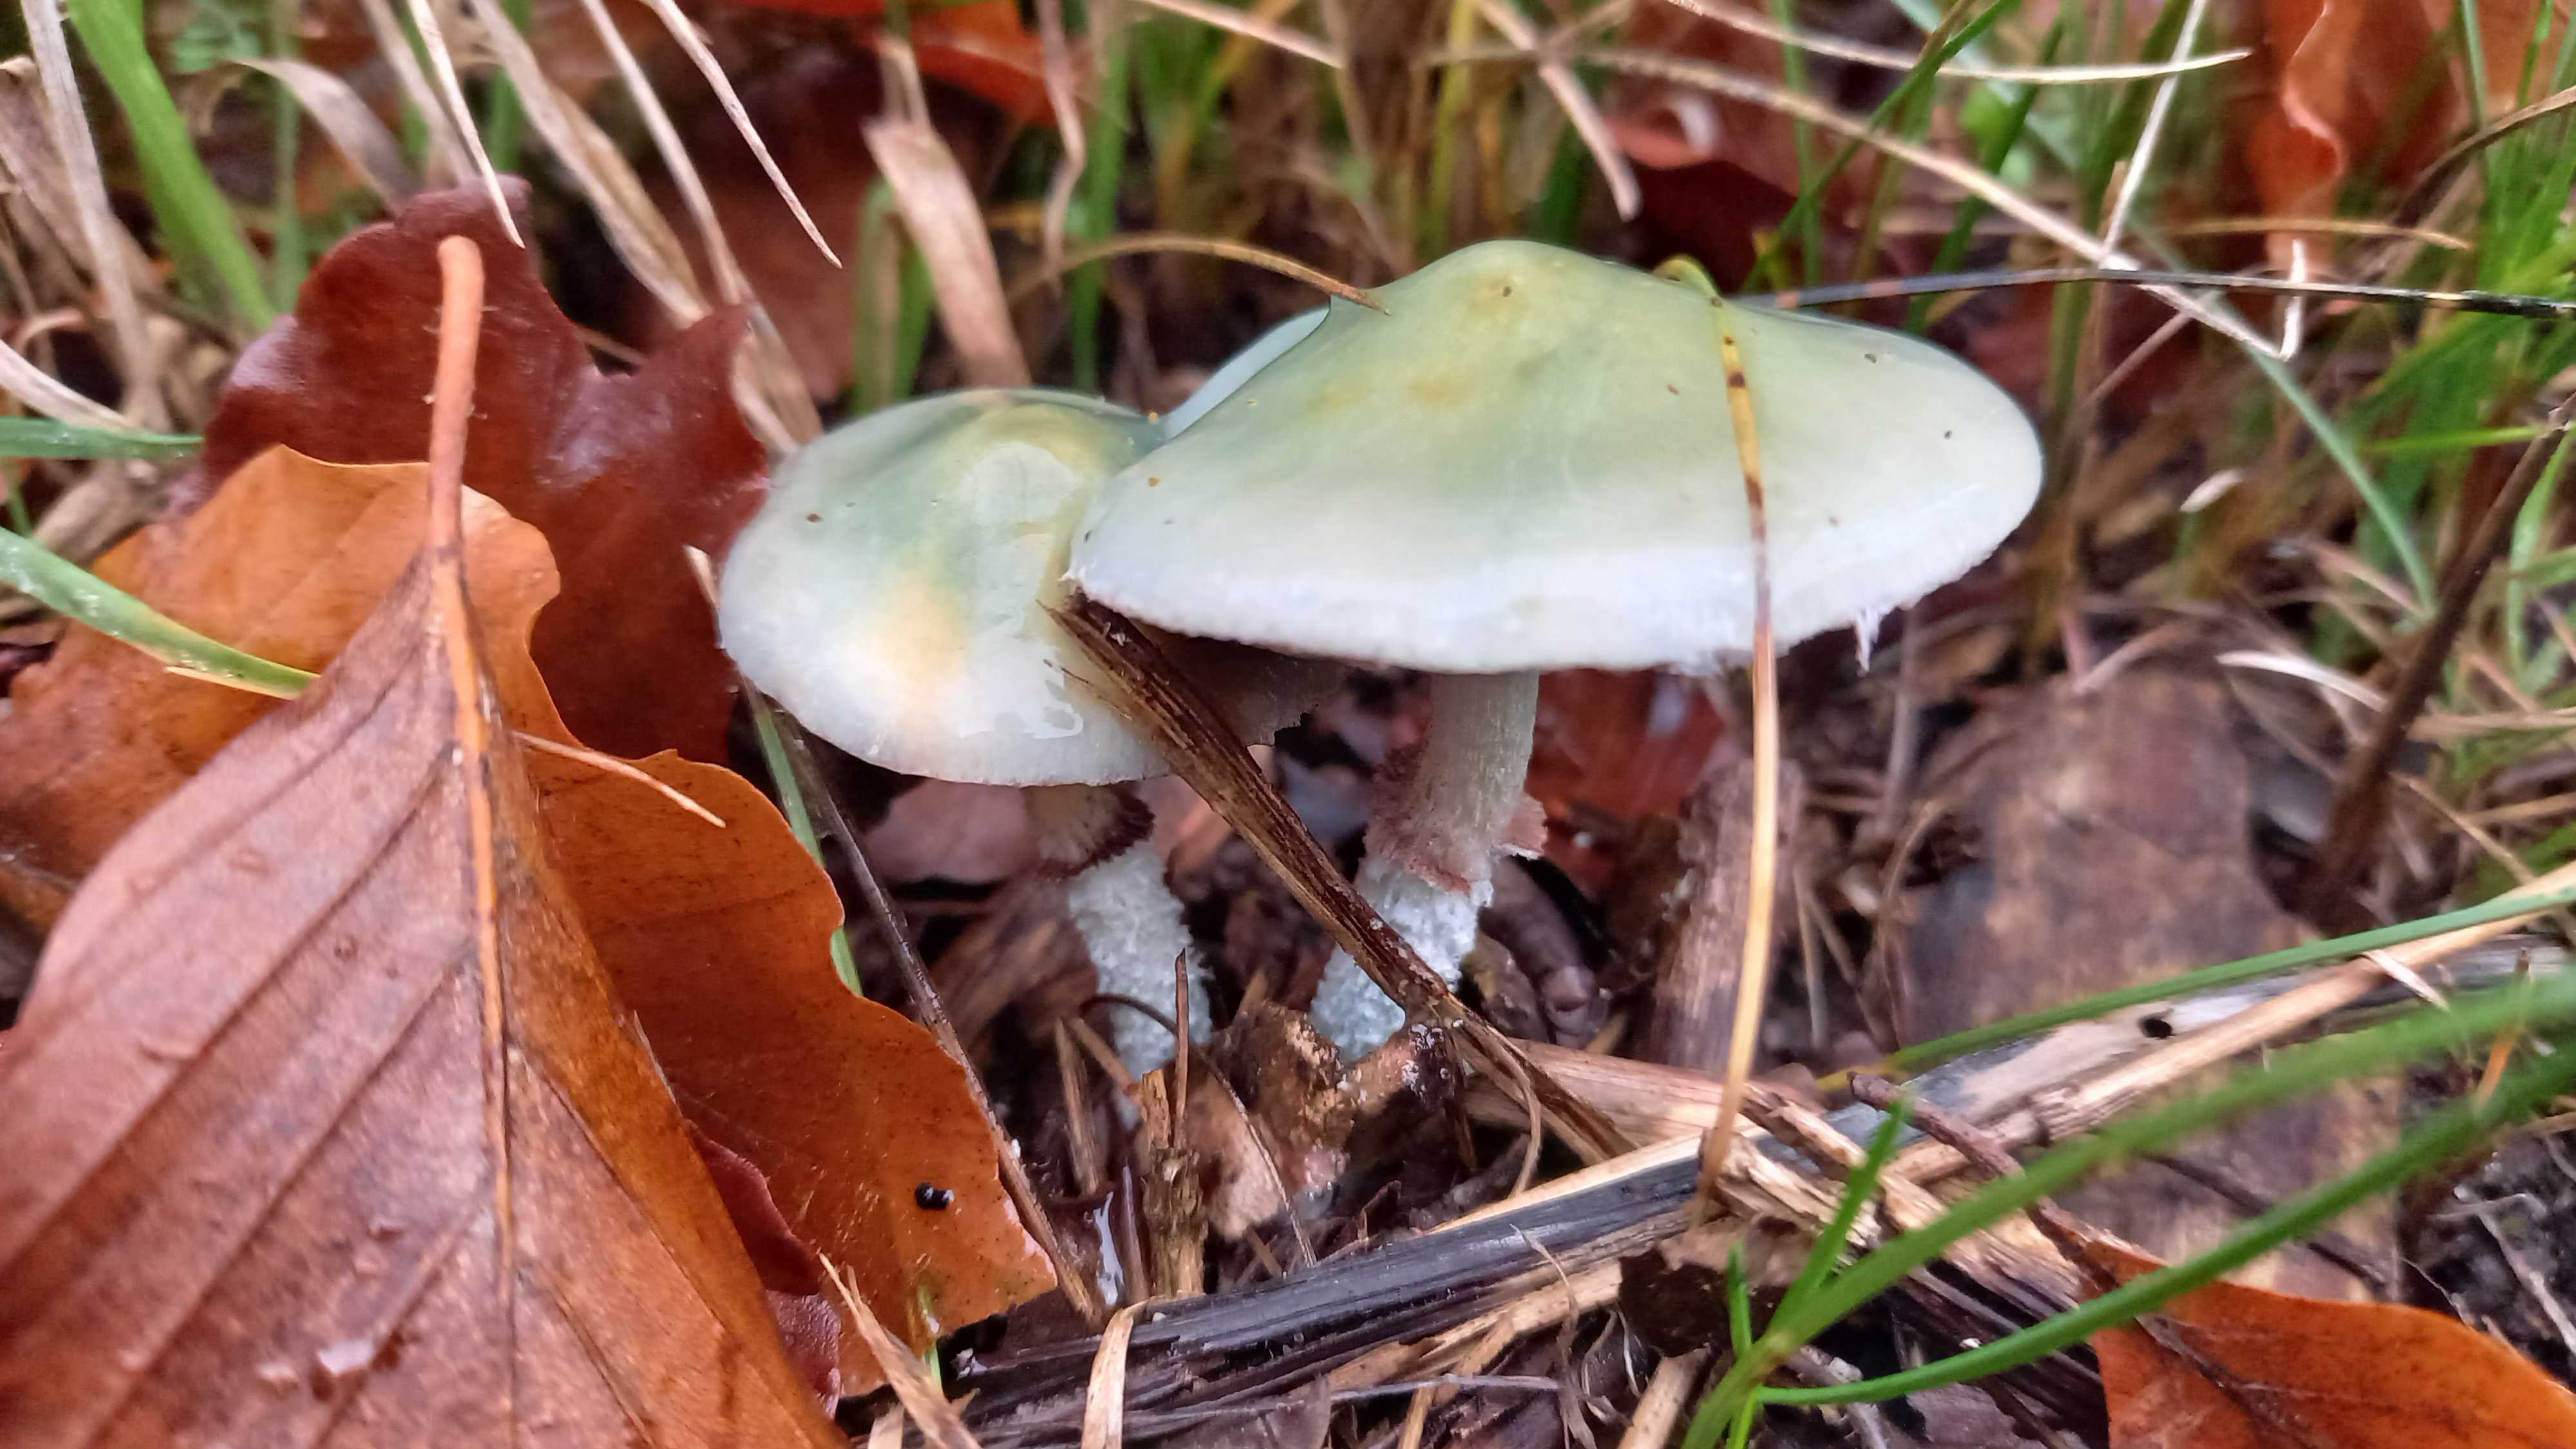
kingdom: Fungi
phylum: Basidiomycota
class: Agaricomycetes
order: Agaricales
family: Strophariaceae
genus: Stropharia
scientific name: Stropharia cyanea
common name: blågrøn bredblad
